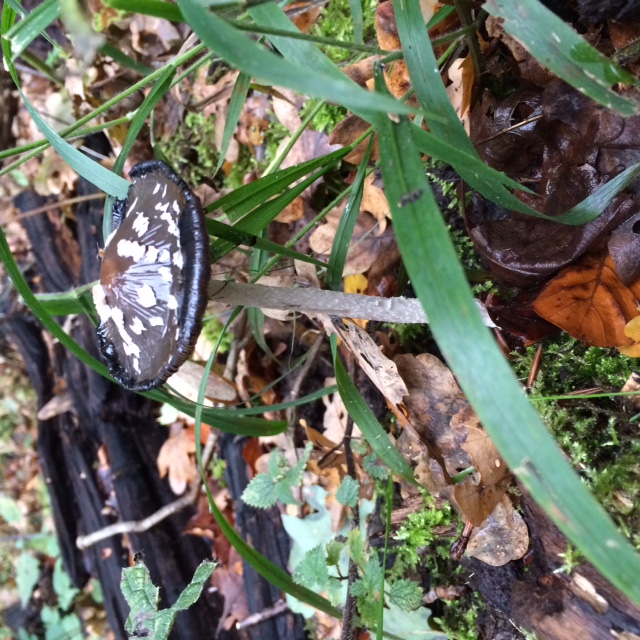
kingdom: Fungi
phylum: Basidiomycota
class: Agaricomycetes
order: Agaricales
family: Psathyrellaceae
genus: Coprinopsis
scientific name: Coprinopsis picacea
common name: skade-blækhat
